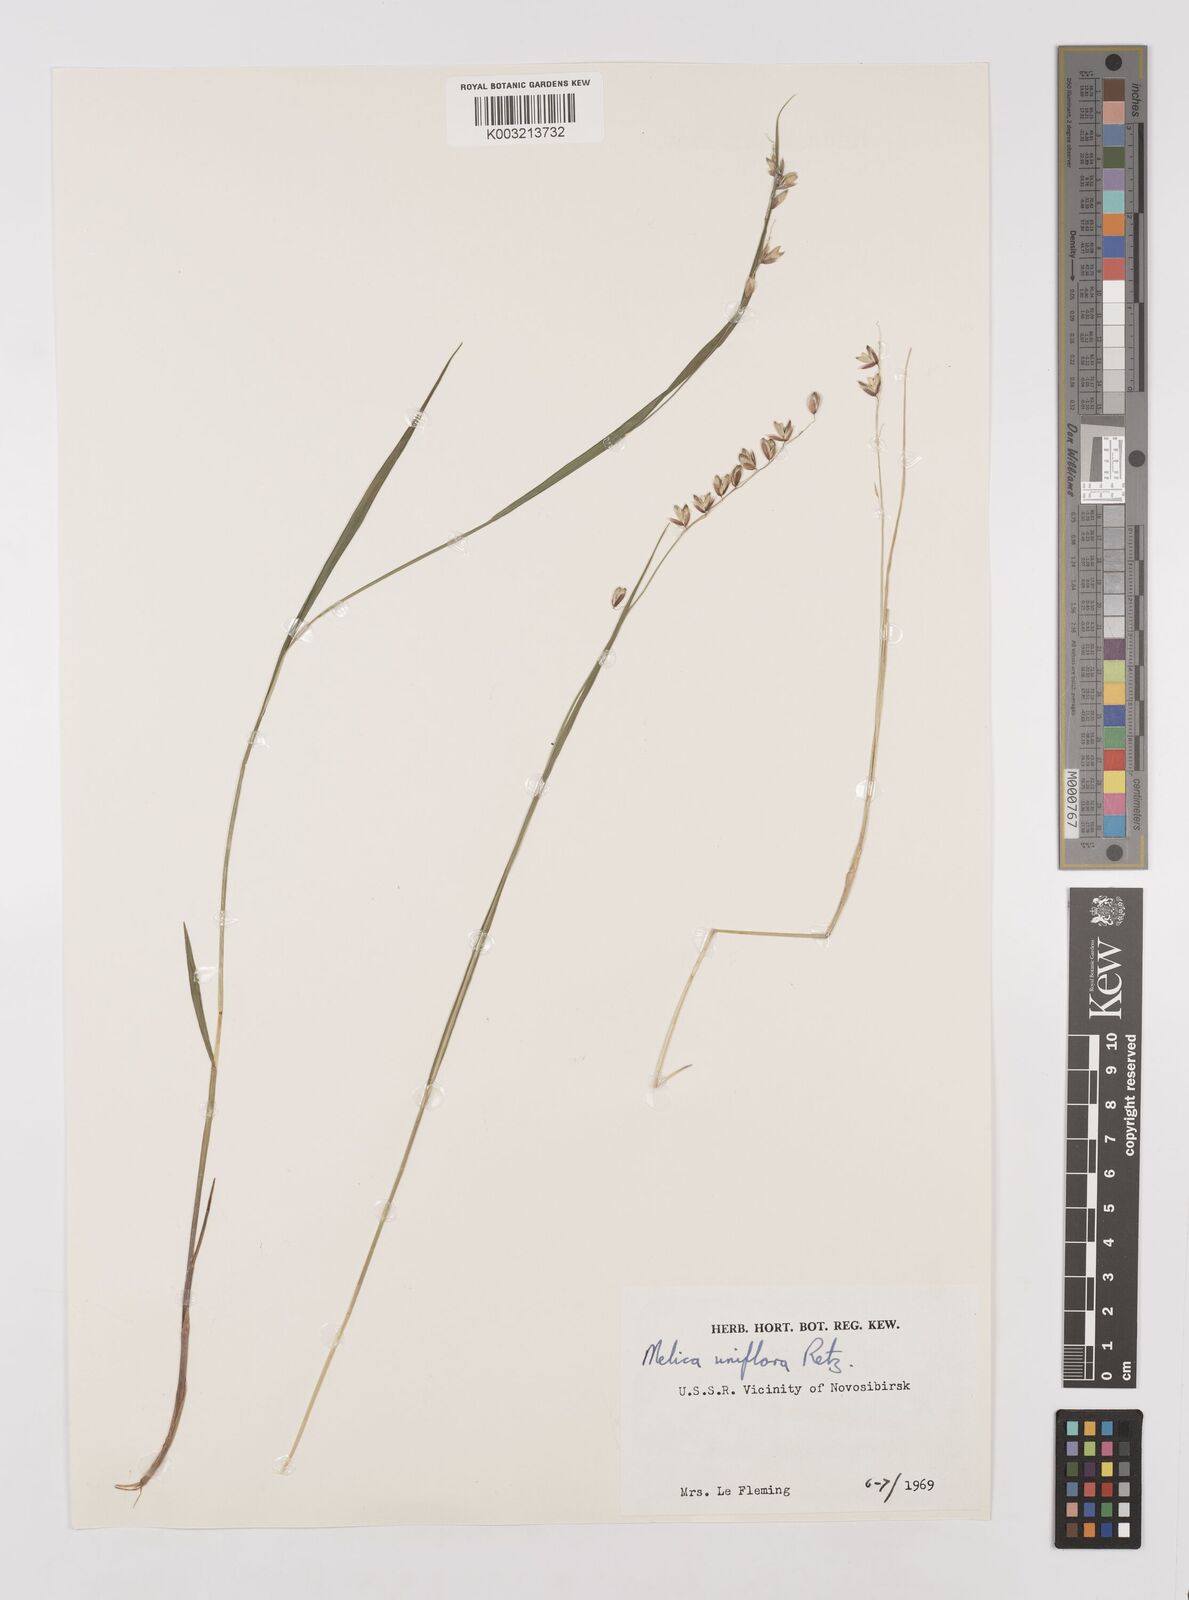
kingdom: Plantae
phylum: Tracheophyta
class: Liliopsida
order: Poales
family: Poaceae
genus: Melica
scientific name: Melica
